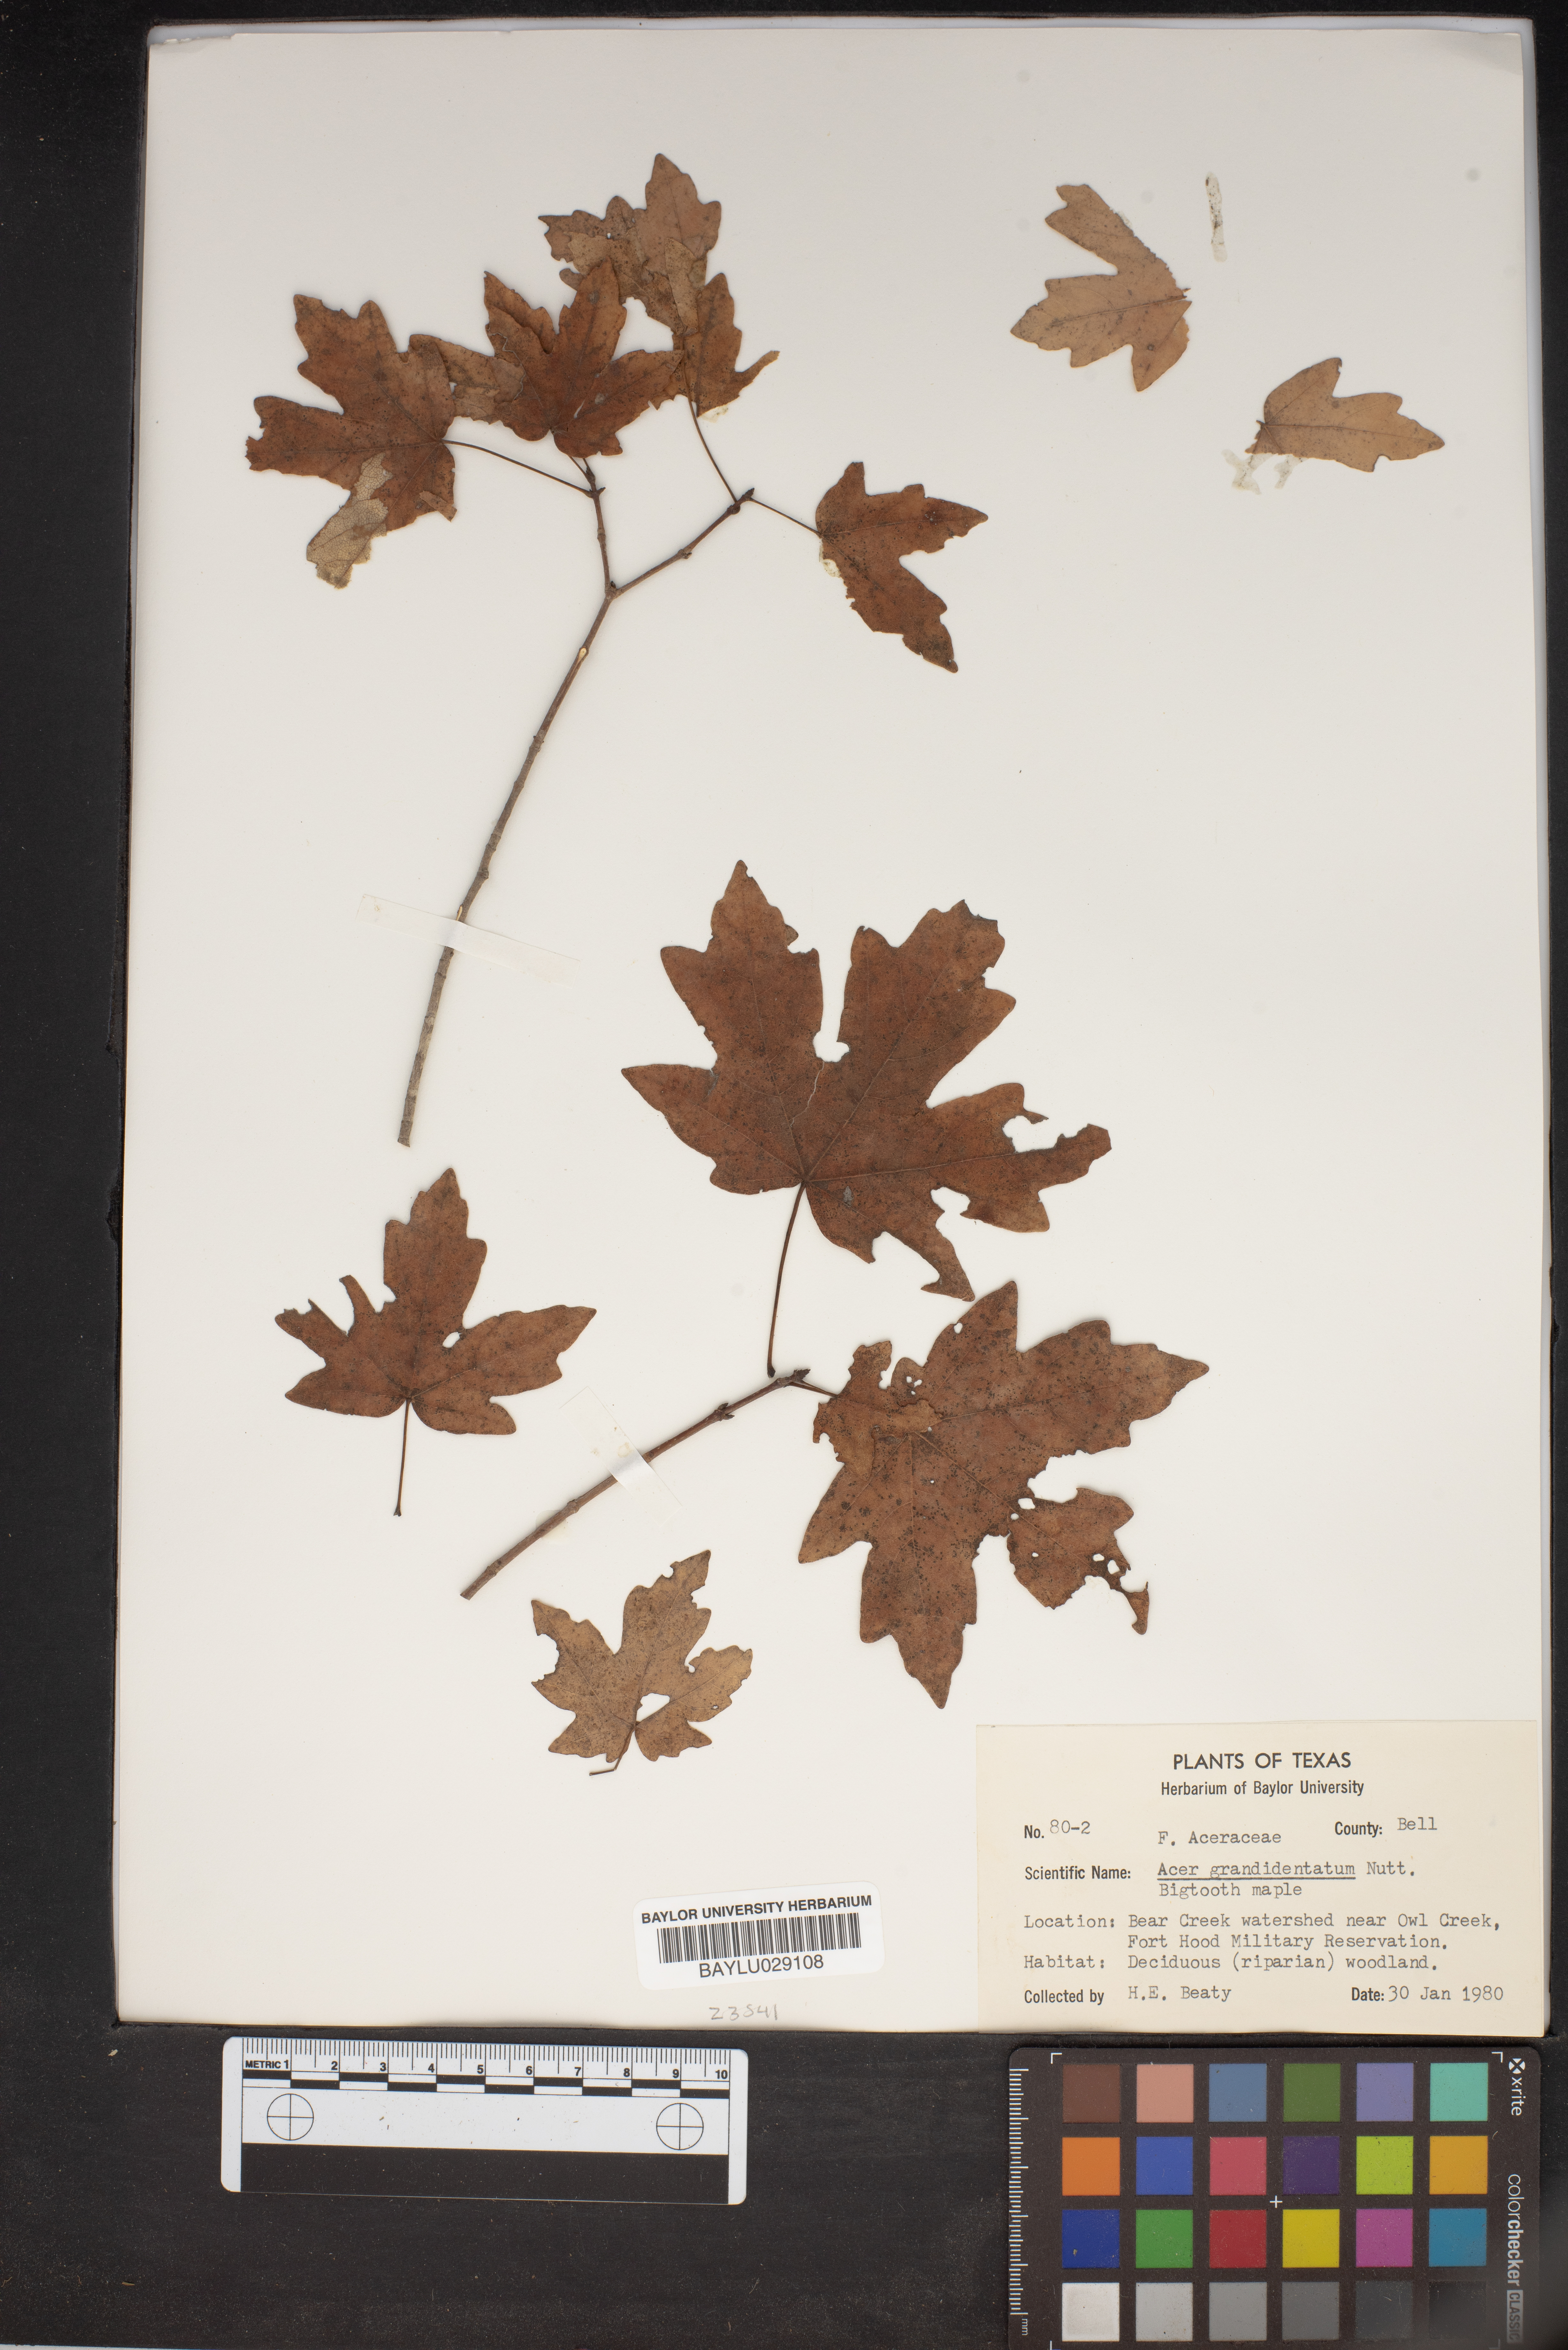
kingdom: Plantae
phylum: Tracheophyta
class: Magnoliopsida
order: Sapindales
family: Sapindaceae
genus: Acer
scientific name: Acer grandidentatum
